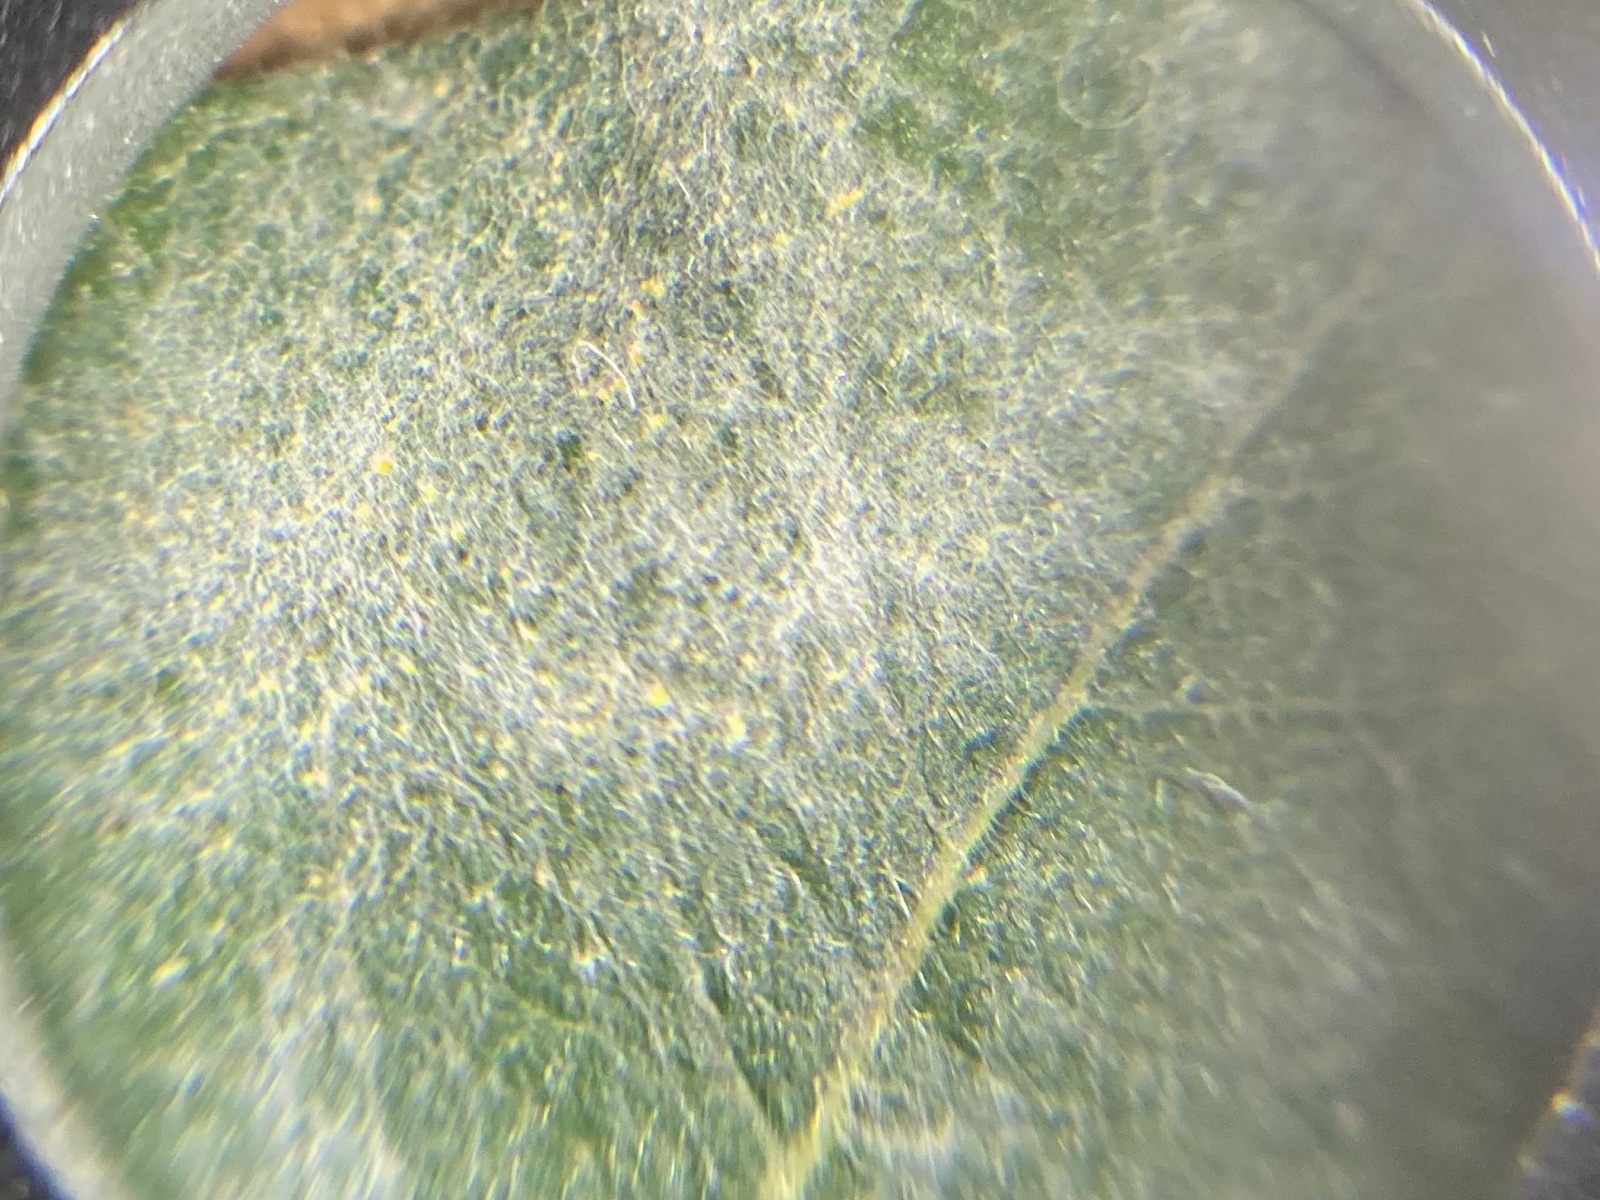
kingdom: Fungi
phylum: Ascomycota
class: Leotiomycetes
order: Helotiales
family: Erysiphaceae
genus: Erysiphe
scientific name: Erysiphe adunca
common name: pile-meldug
